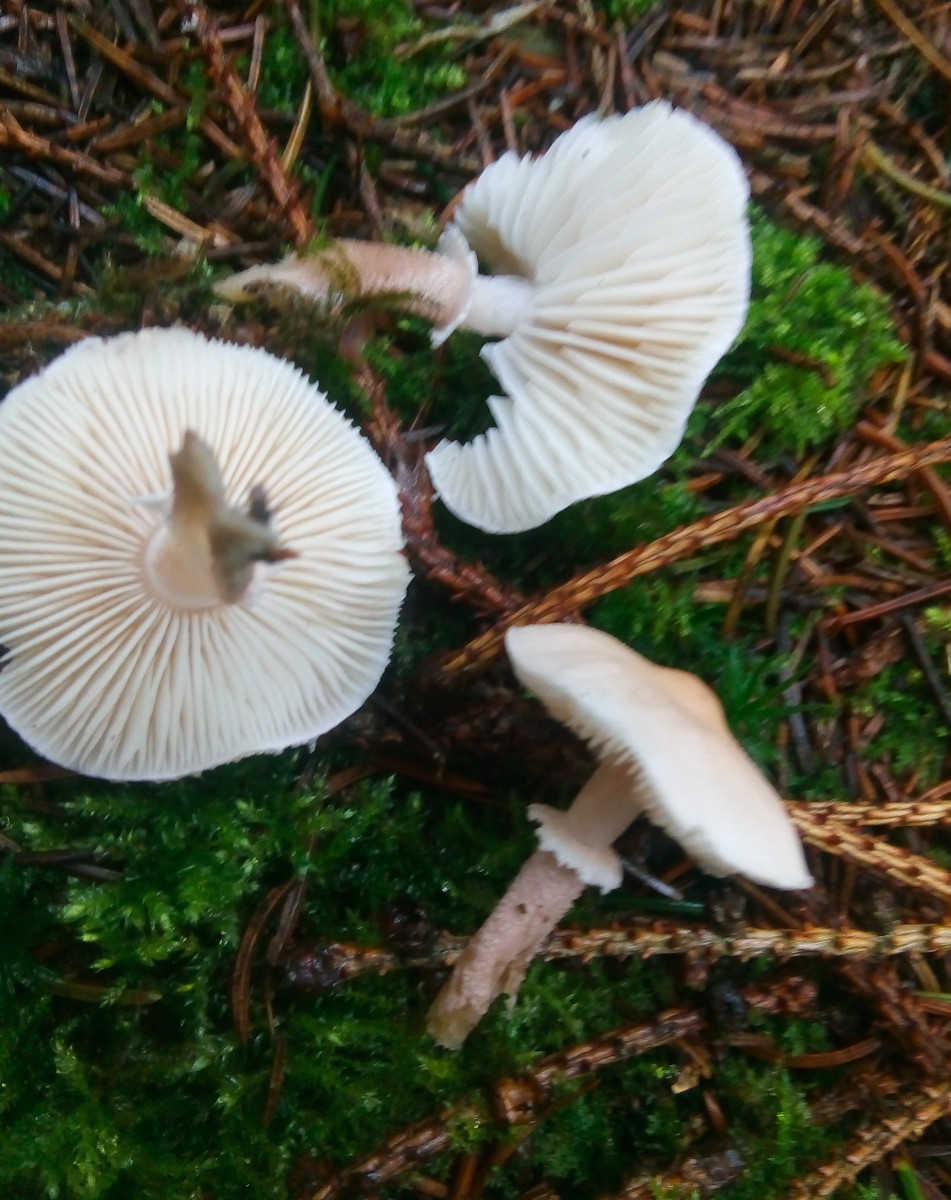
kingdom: Fungi
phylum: Basidiomycota
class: Agaricomycetes
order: Agaricales
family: Tricholomataceae
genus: Cystoderma
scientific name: Cystoderma carcharias
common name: rødgrå grynhat
